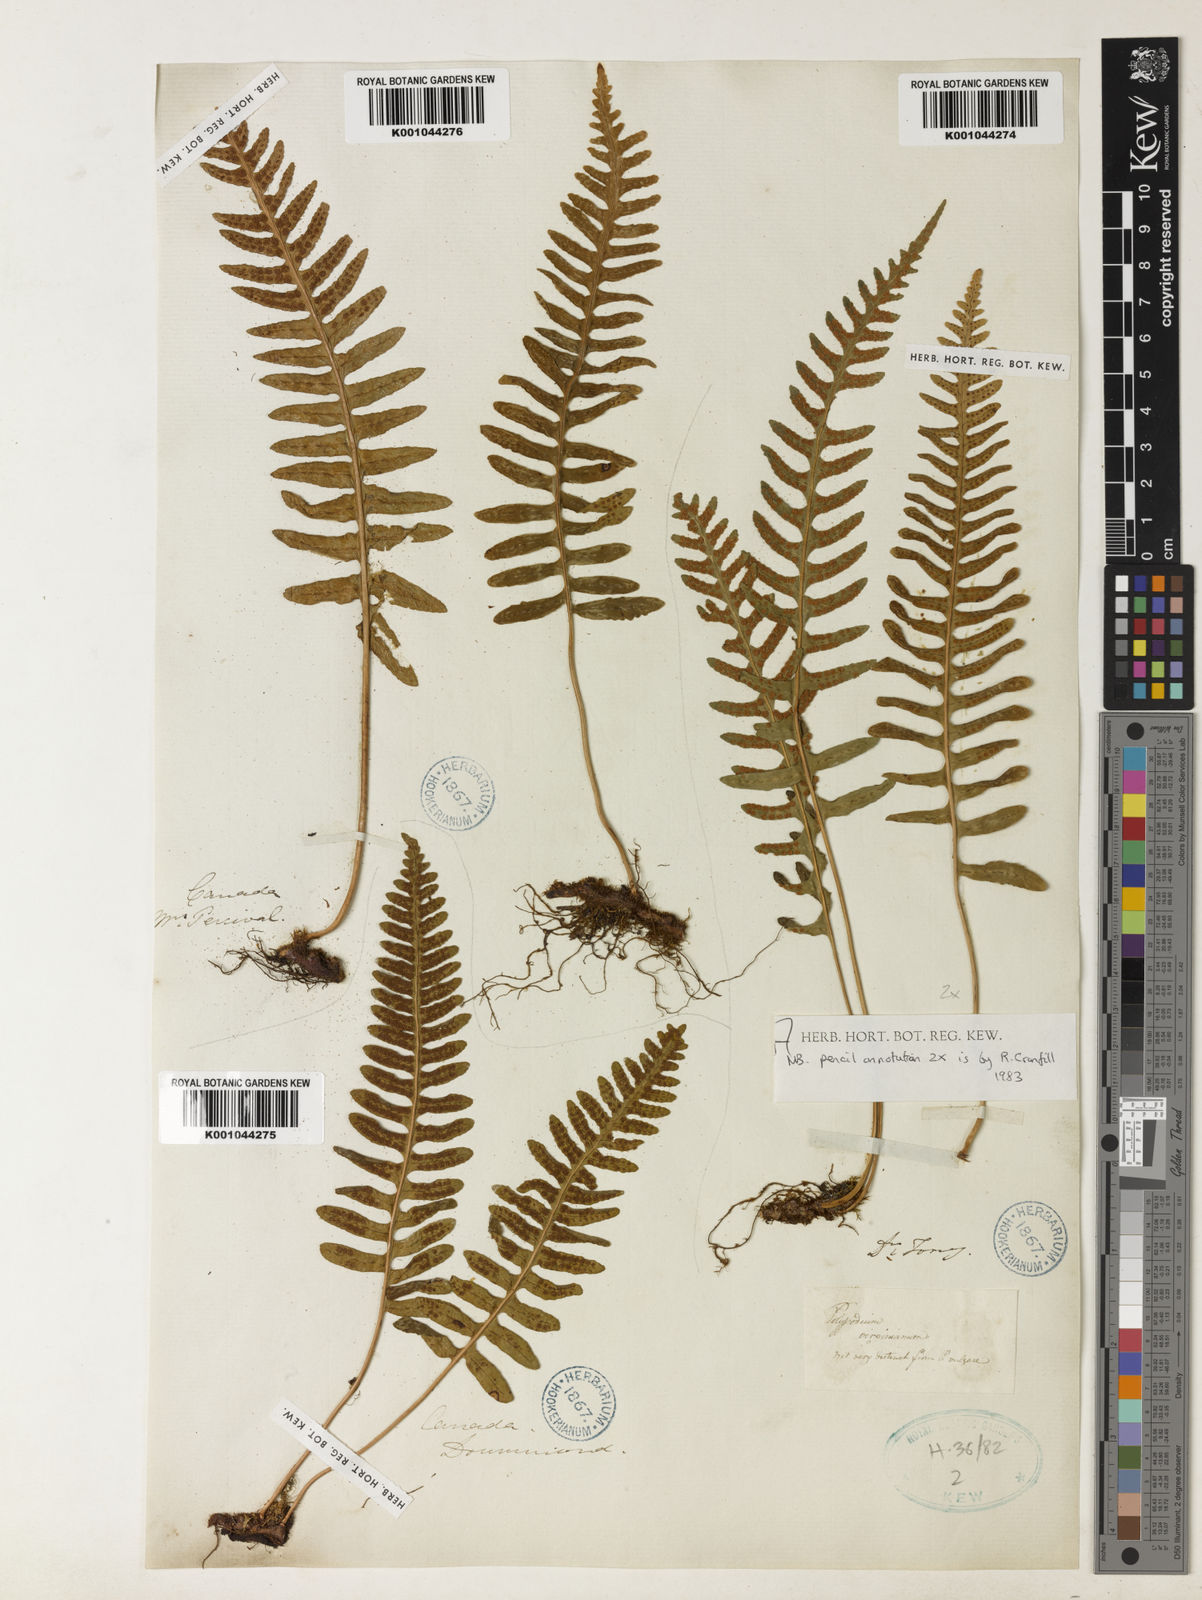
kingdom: Plantae
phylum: Tracheophyta
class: Polypodiopsida
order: Polypodiales
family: Polypodiaceae
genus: Polypodium
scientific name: Polypodium virginianum
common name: American wall fern
